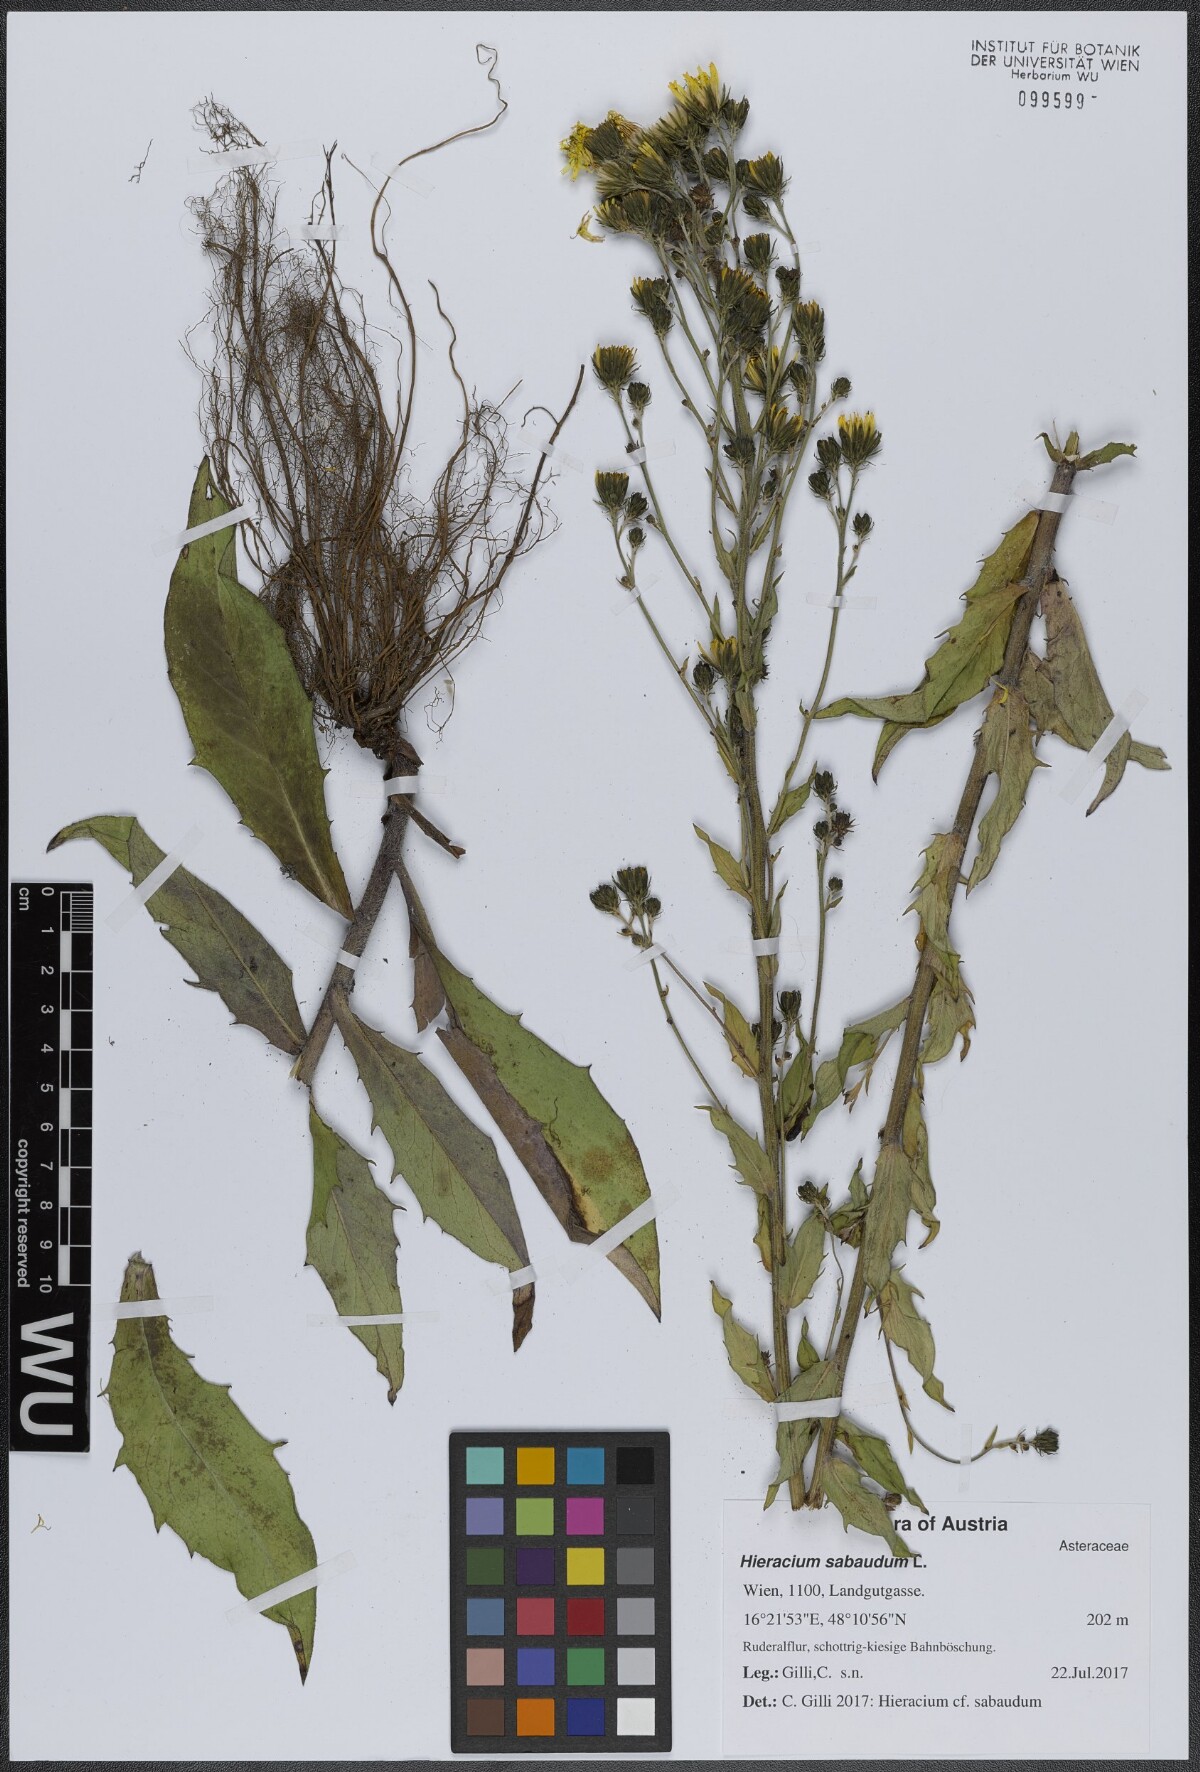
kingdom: Plantae
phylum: Tracheophyta
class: Magnoliopsida
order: Asterales
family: Asteraceae
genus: Hieracium
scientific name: Hieracium sabaudum
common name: New england hawkweed
